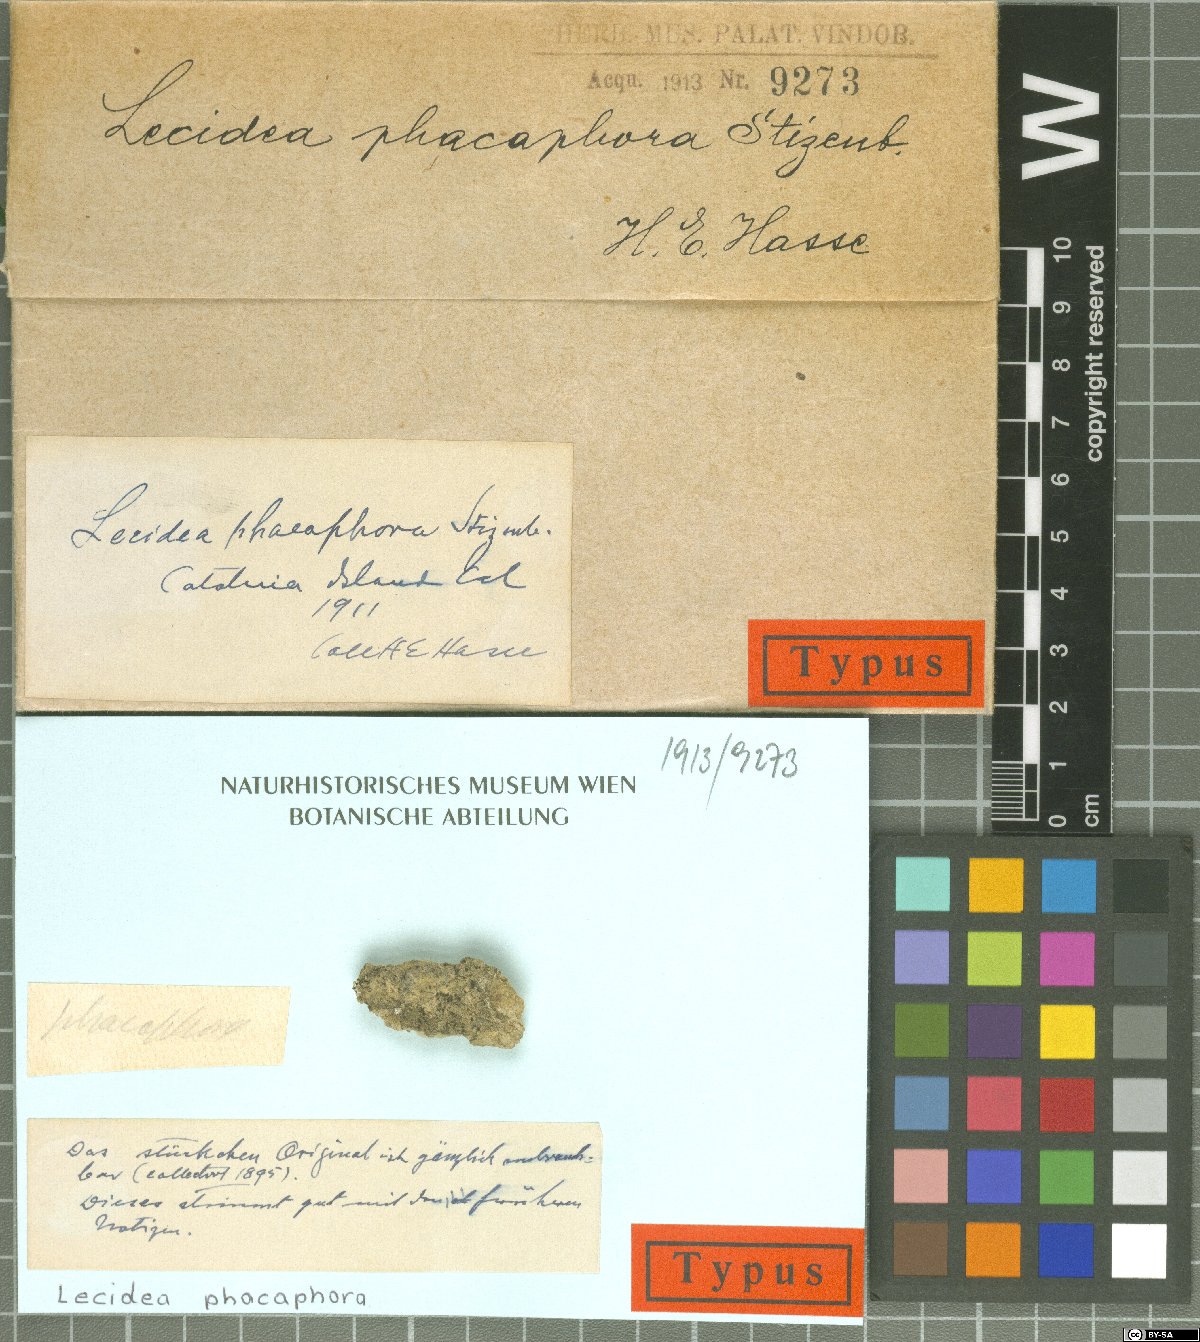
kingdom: Fungi
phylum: Ascomycota
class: Lecanoromycetes
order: Lecanorales
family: Ramalinaceae
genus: Biatora
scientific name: Biatora
